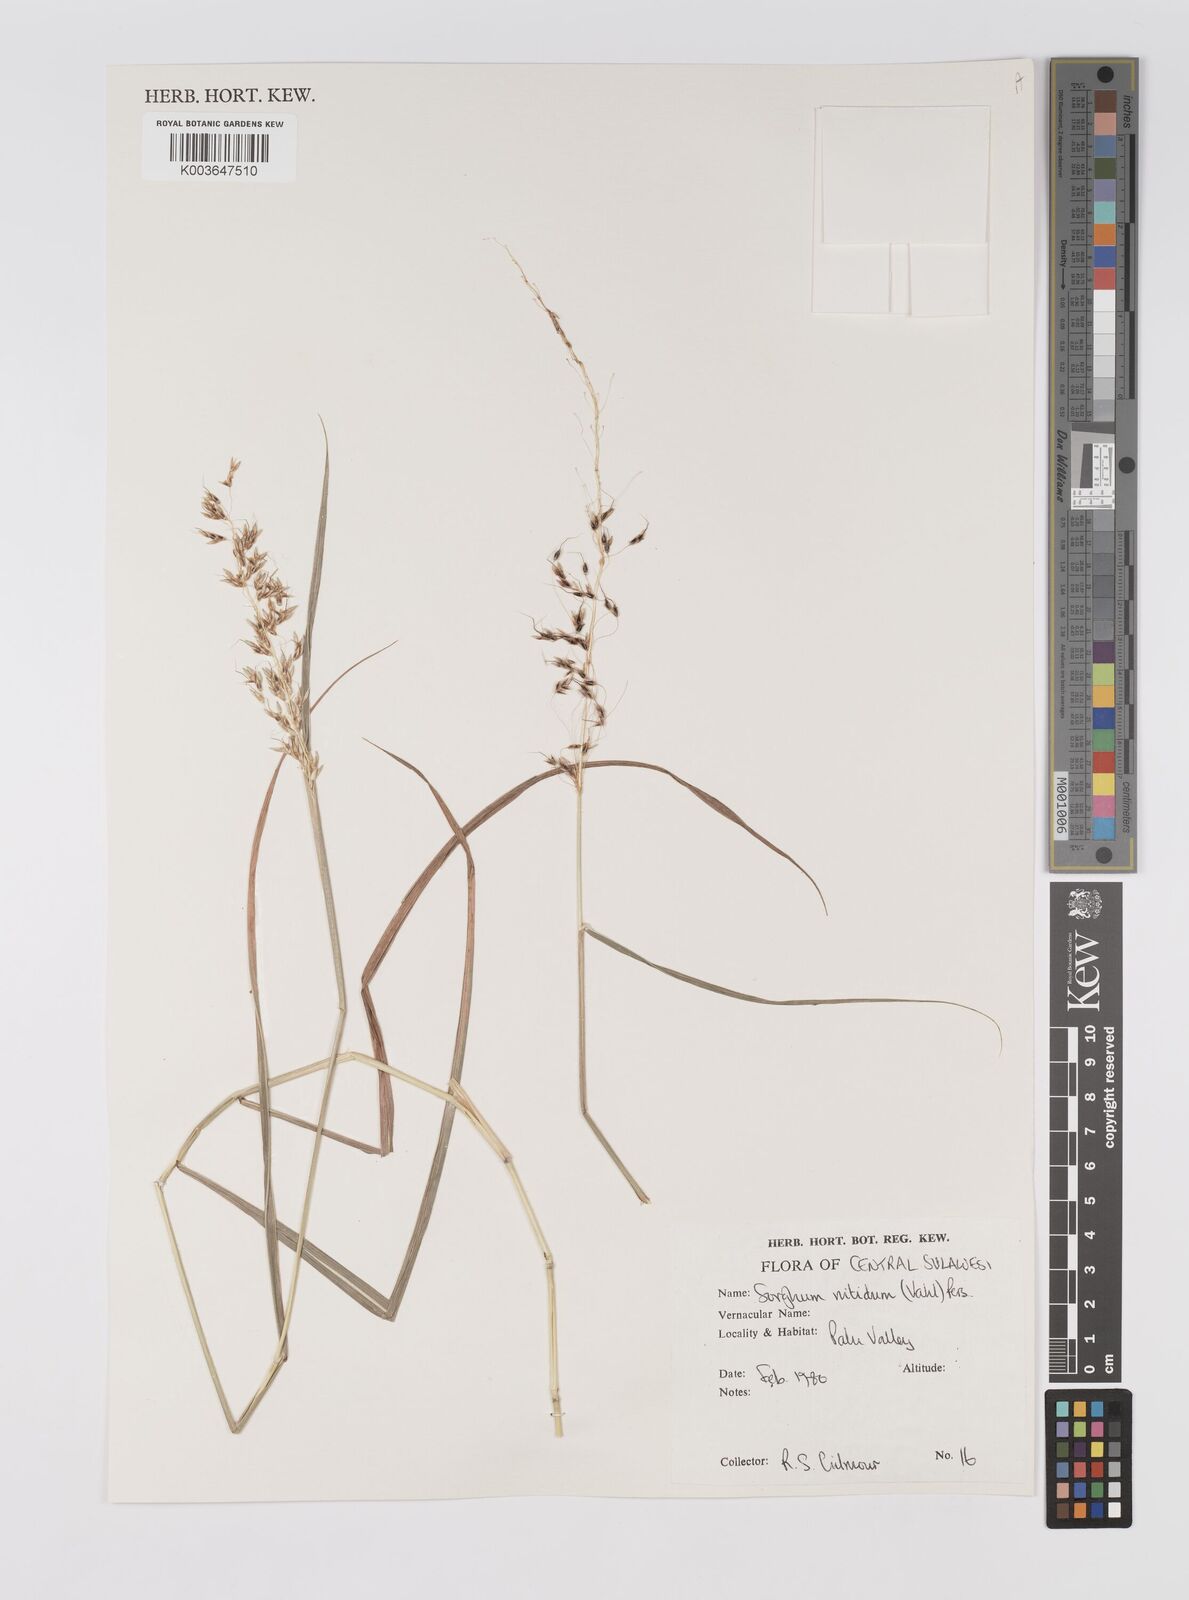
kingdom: Plantae
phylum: Tracheophyta
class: Liliopsida
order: Poales
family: Poaceae
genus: Sorghum
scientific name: Sorghum nitidum
